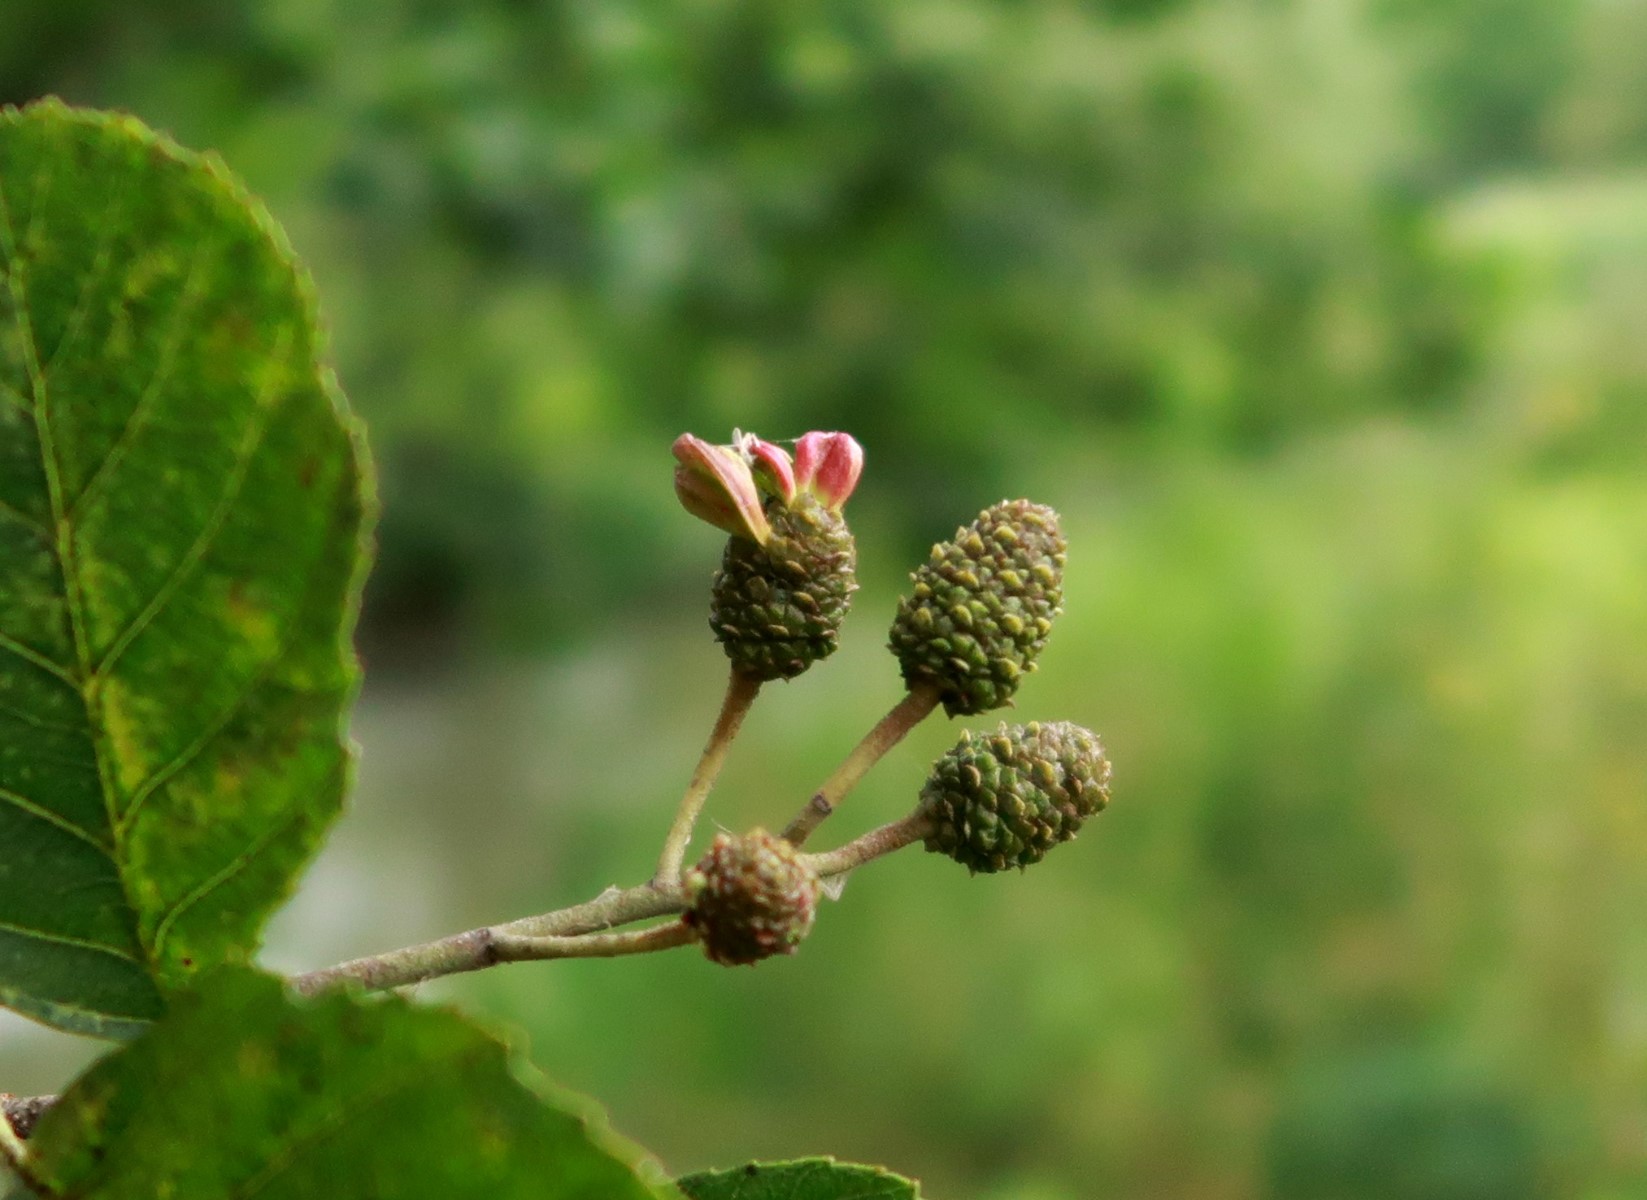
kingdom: Fungi
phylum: Ascomycota
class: Taphrinomycetes
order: Taphrinales
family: Taphrinaceae
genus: Taphrina
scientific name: Taphrina alni
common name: Alder tongue
